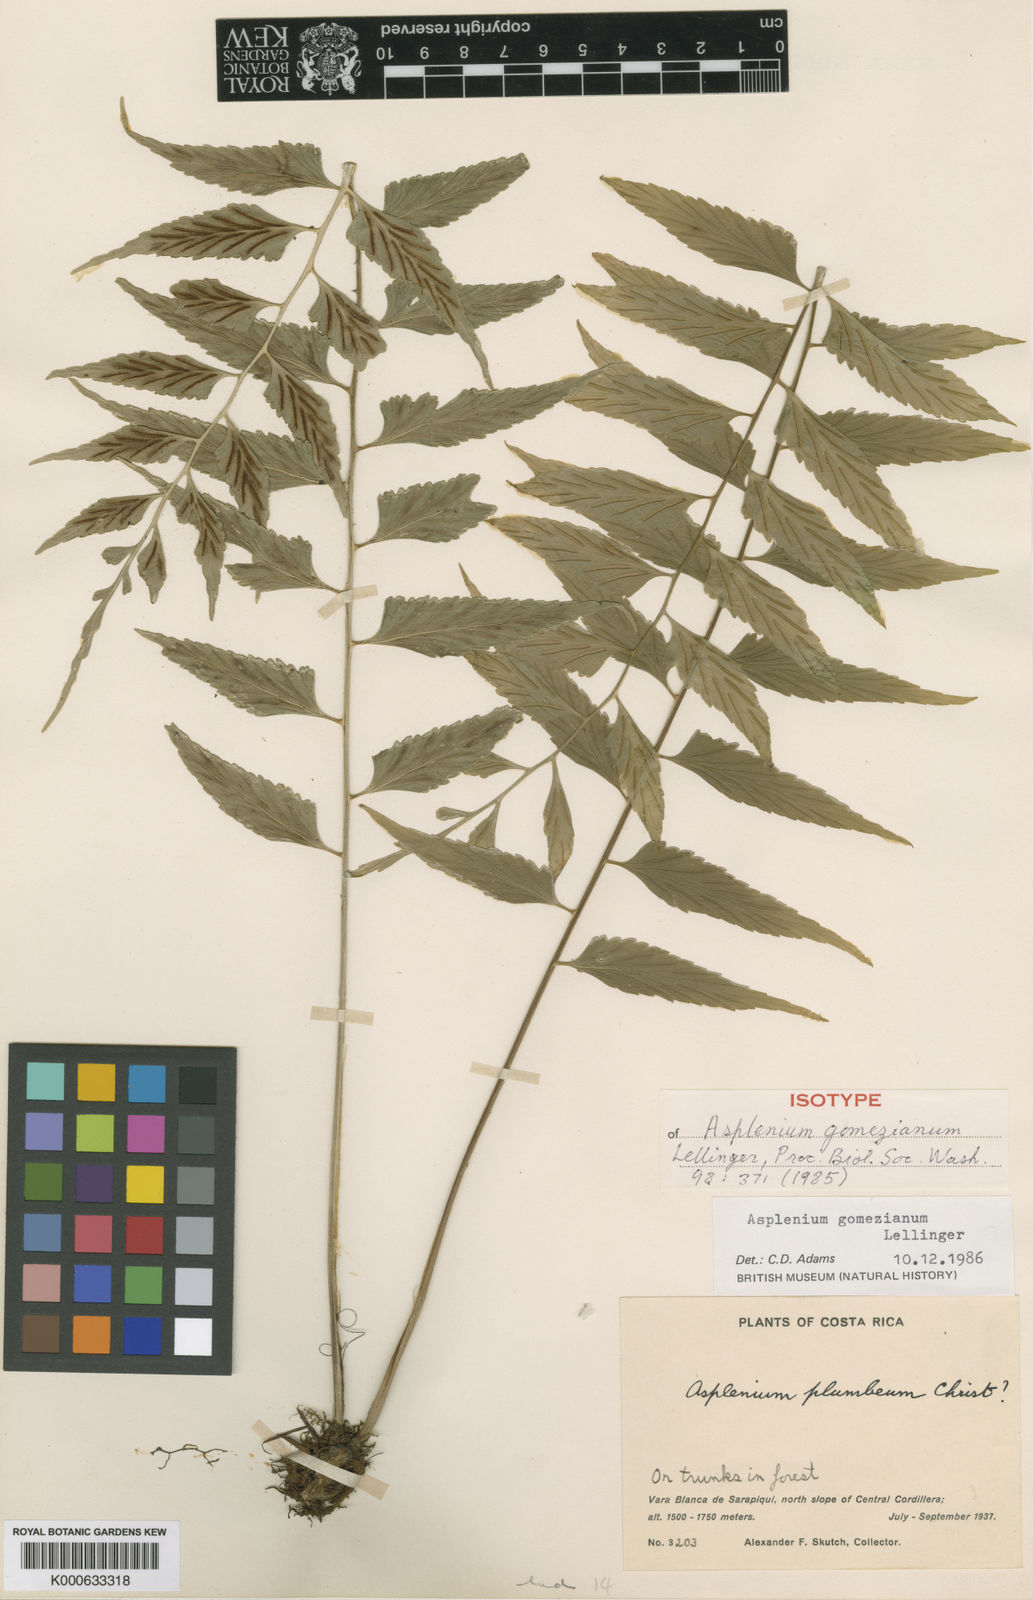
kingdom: Plantae
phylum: Tracheophyta
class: Polypodiopsida
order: Polypodiales
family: Aspleniaceae
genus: Asplenium
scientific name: Asplenium gomezianum
